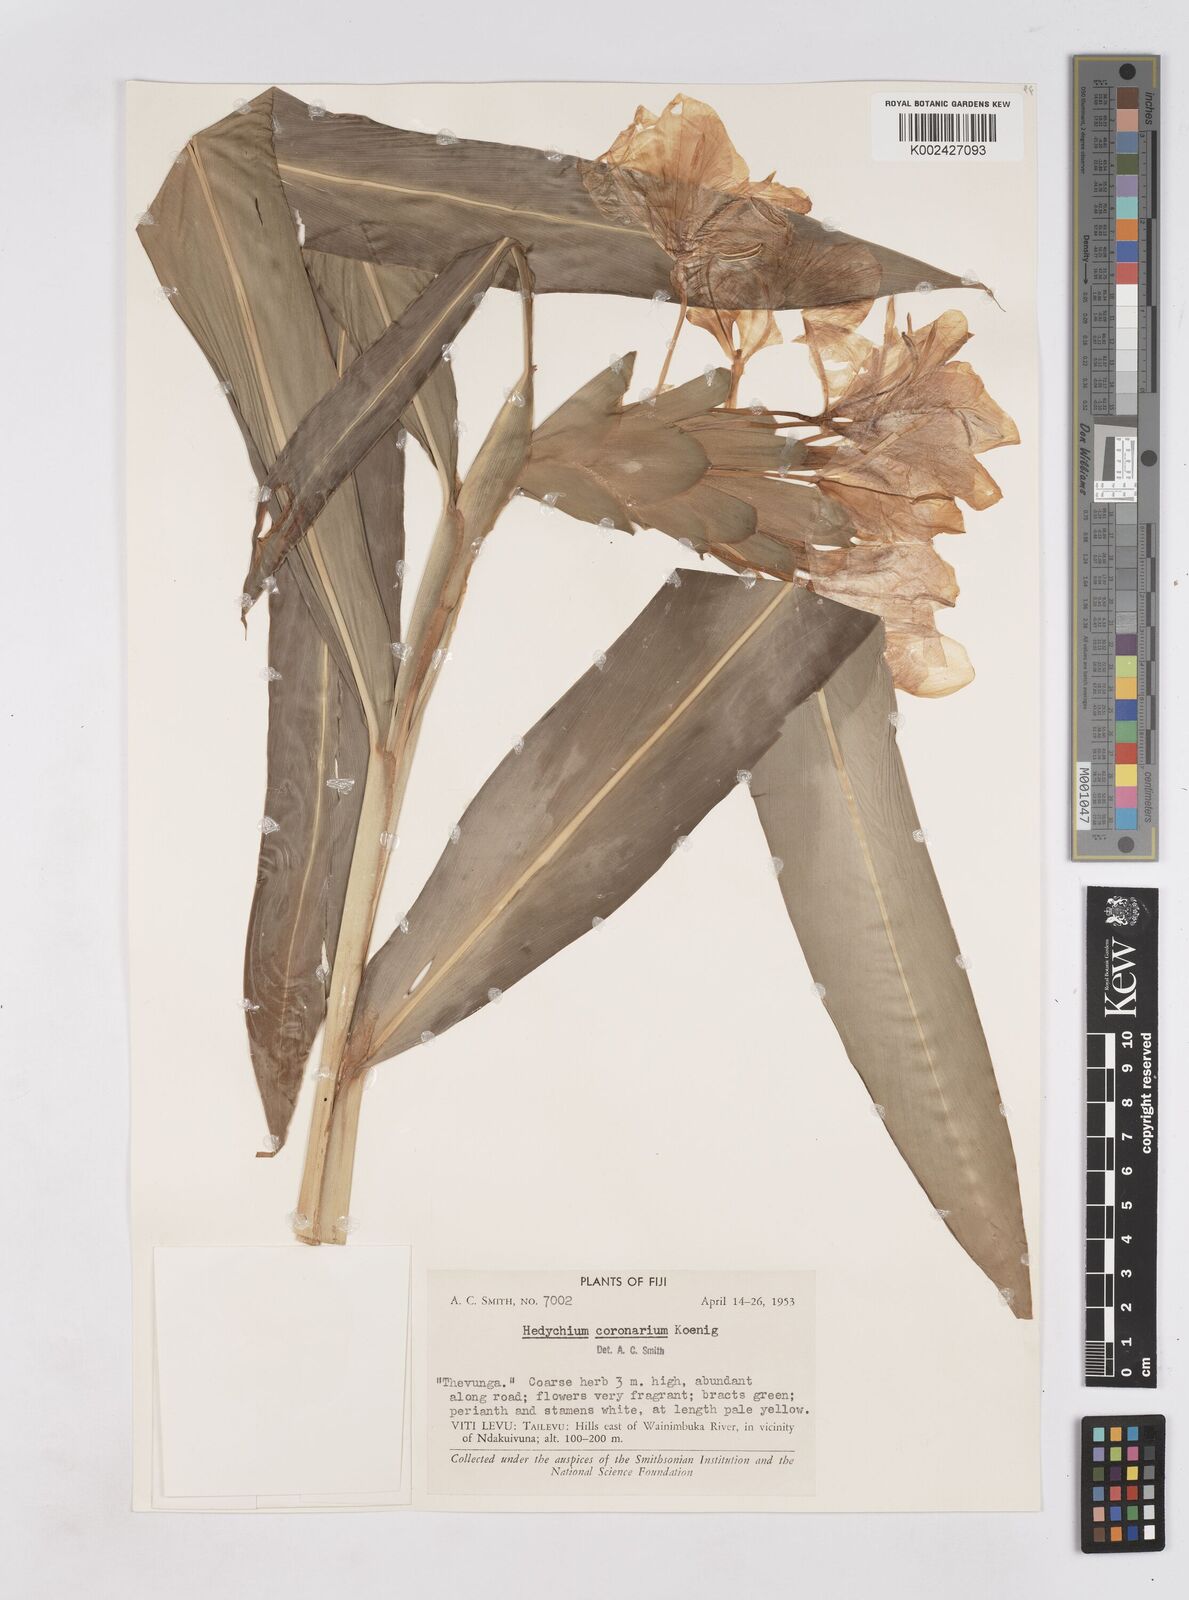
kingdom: Plantae
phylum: Tracheophyta
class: Liliopsida
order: Zingiberales
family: Zingiberaceae
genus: Hedychium
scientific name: Hedychium coronarium
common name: White garland-lily
